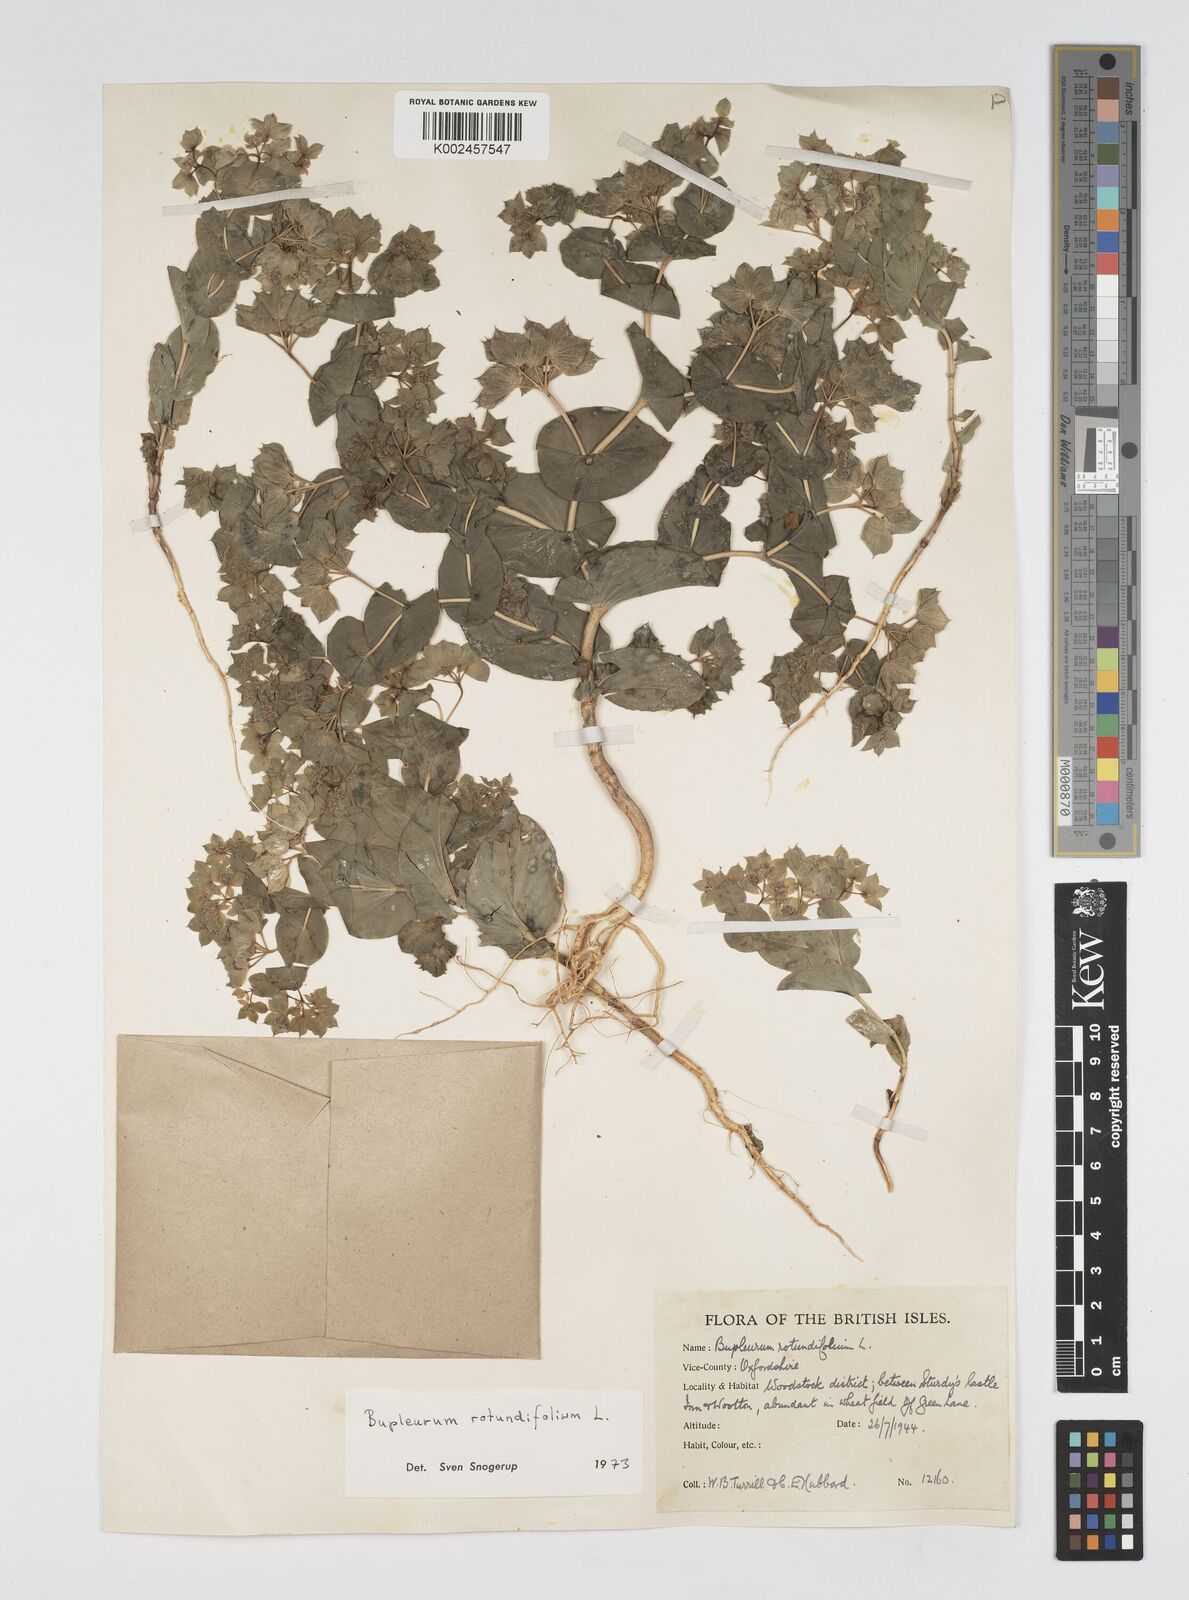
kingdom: Plantae
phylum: Tracheophyta
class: Magnoliopsida
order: Apiales
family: Apiaceae
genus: Bupleurum
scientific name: Bupleurum rotundifolium
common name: Thorow-wax
